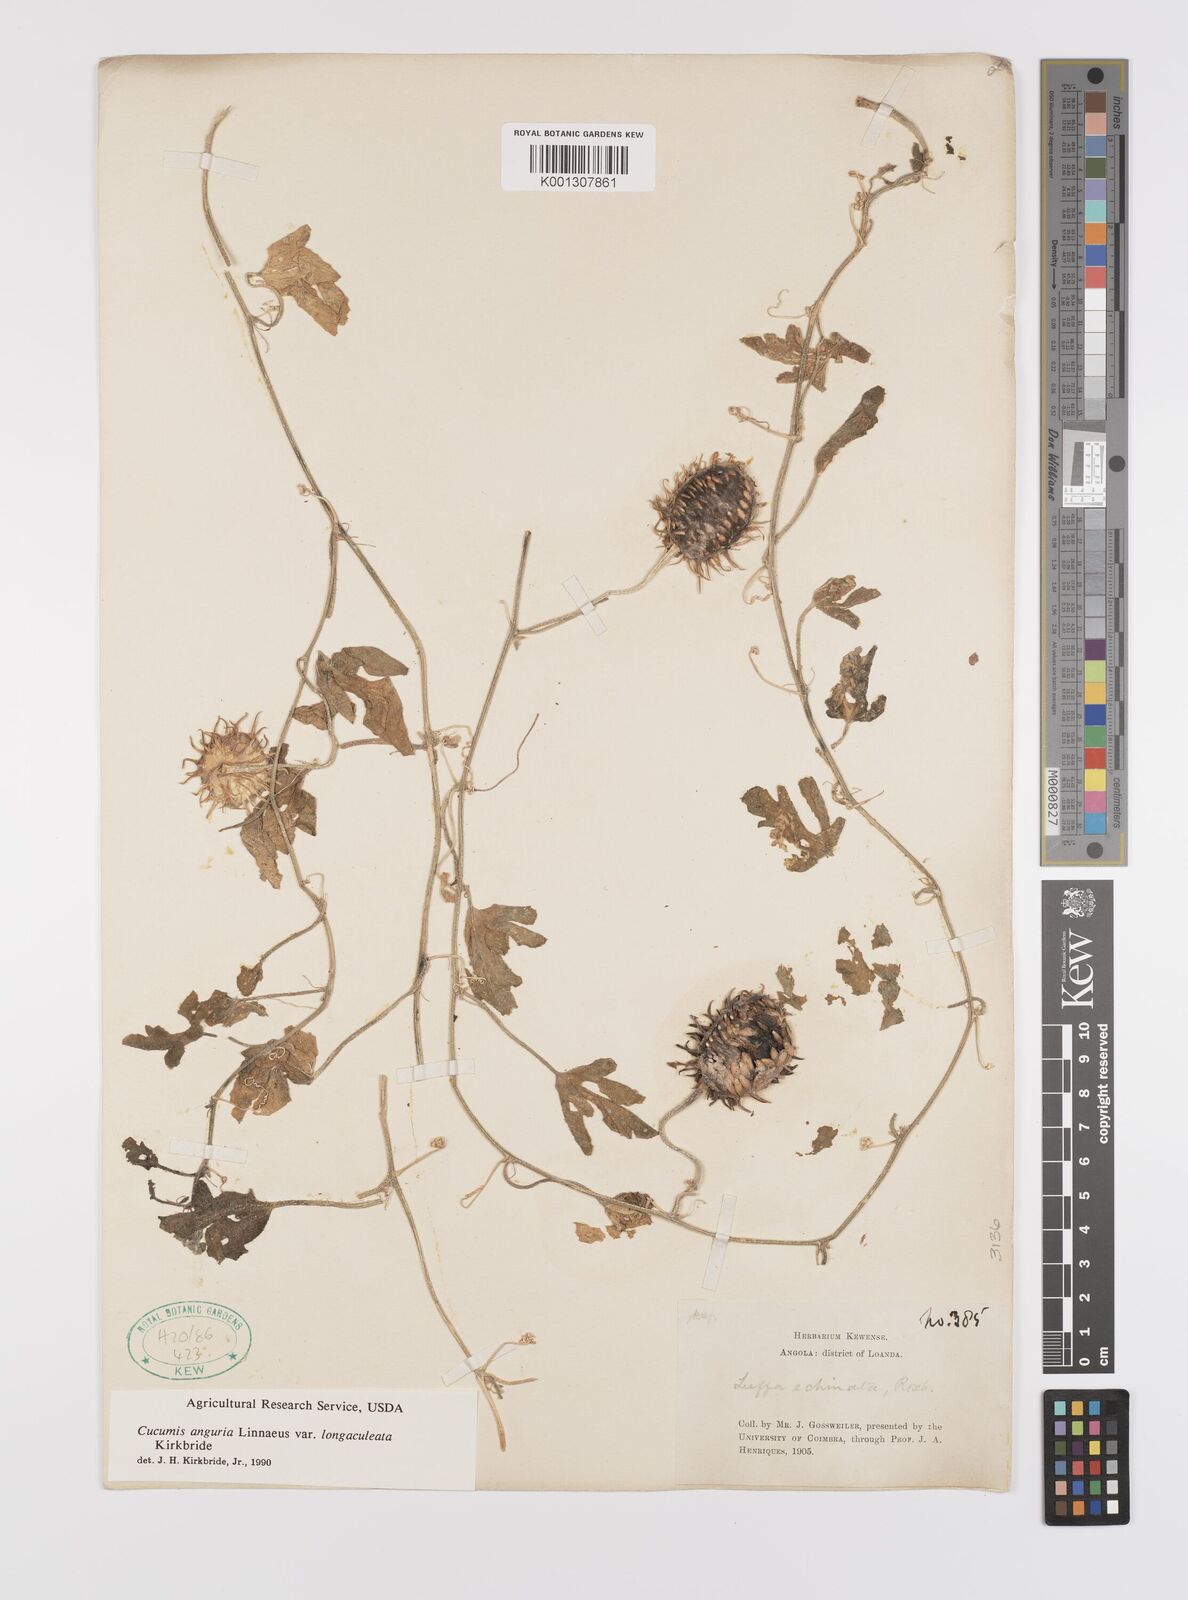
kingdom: Plantae
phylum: Tracheophyta
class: Magnoliopsida
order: Cucurbitales
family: Cucurbitaceae
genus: Cucumis
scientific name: Cucumis anguria
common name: West indian gherkin
